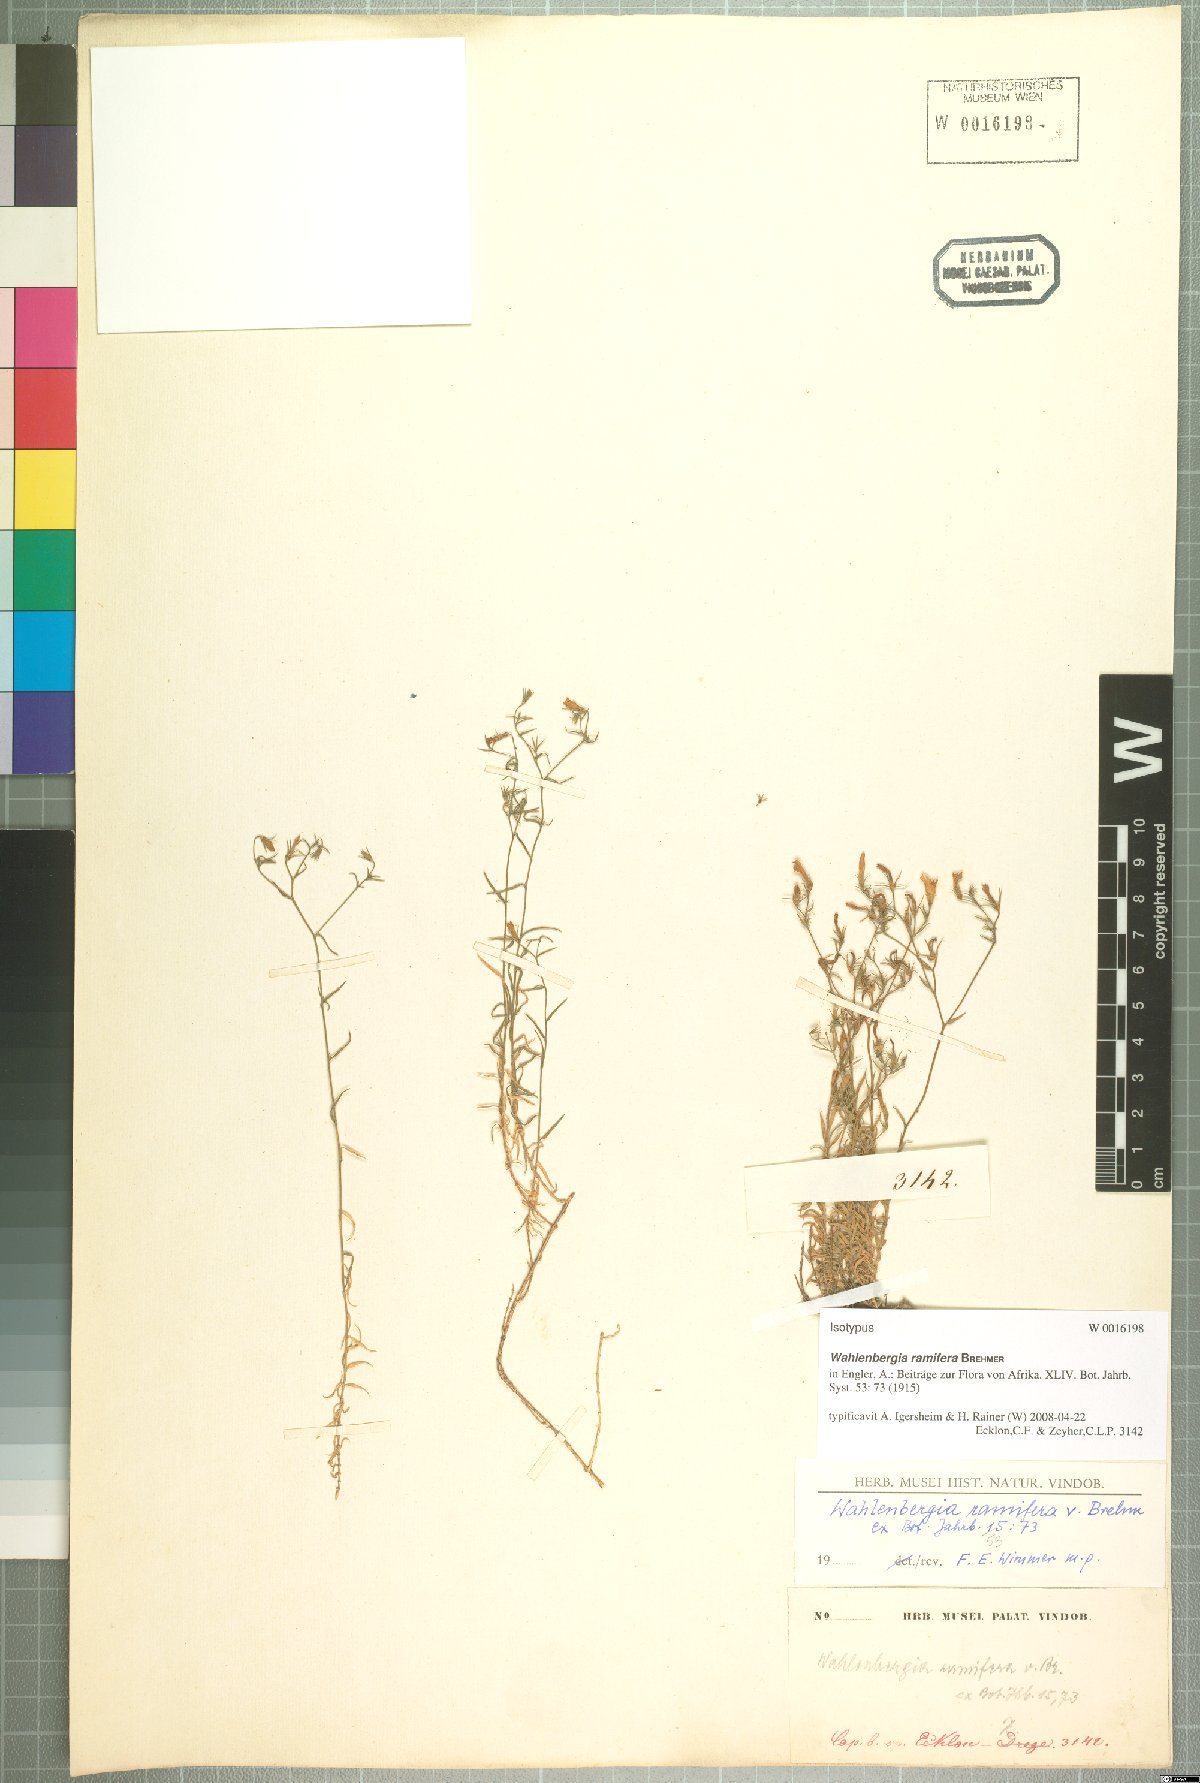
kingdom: Plantae
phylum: Tracheophyta
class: Magnoliopsida
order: Asterales
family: Campanulaceae
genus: Wahlenbergia
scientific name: Wahlenbergia ramifera
